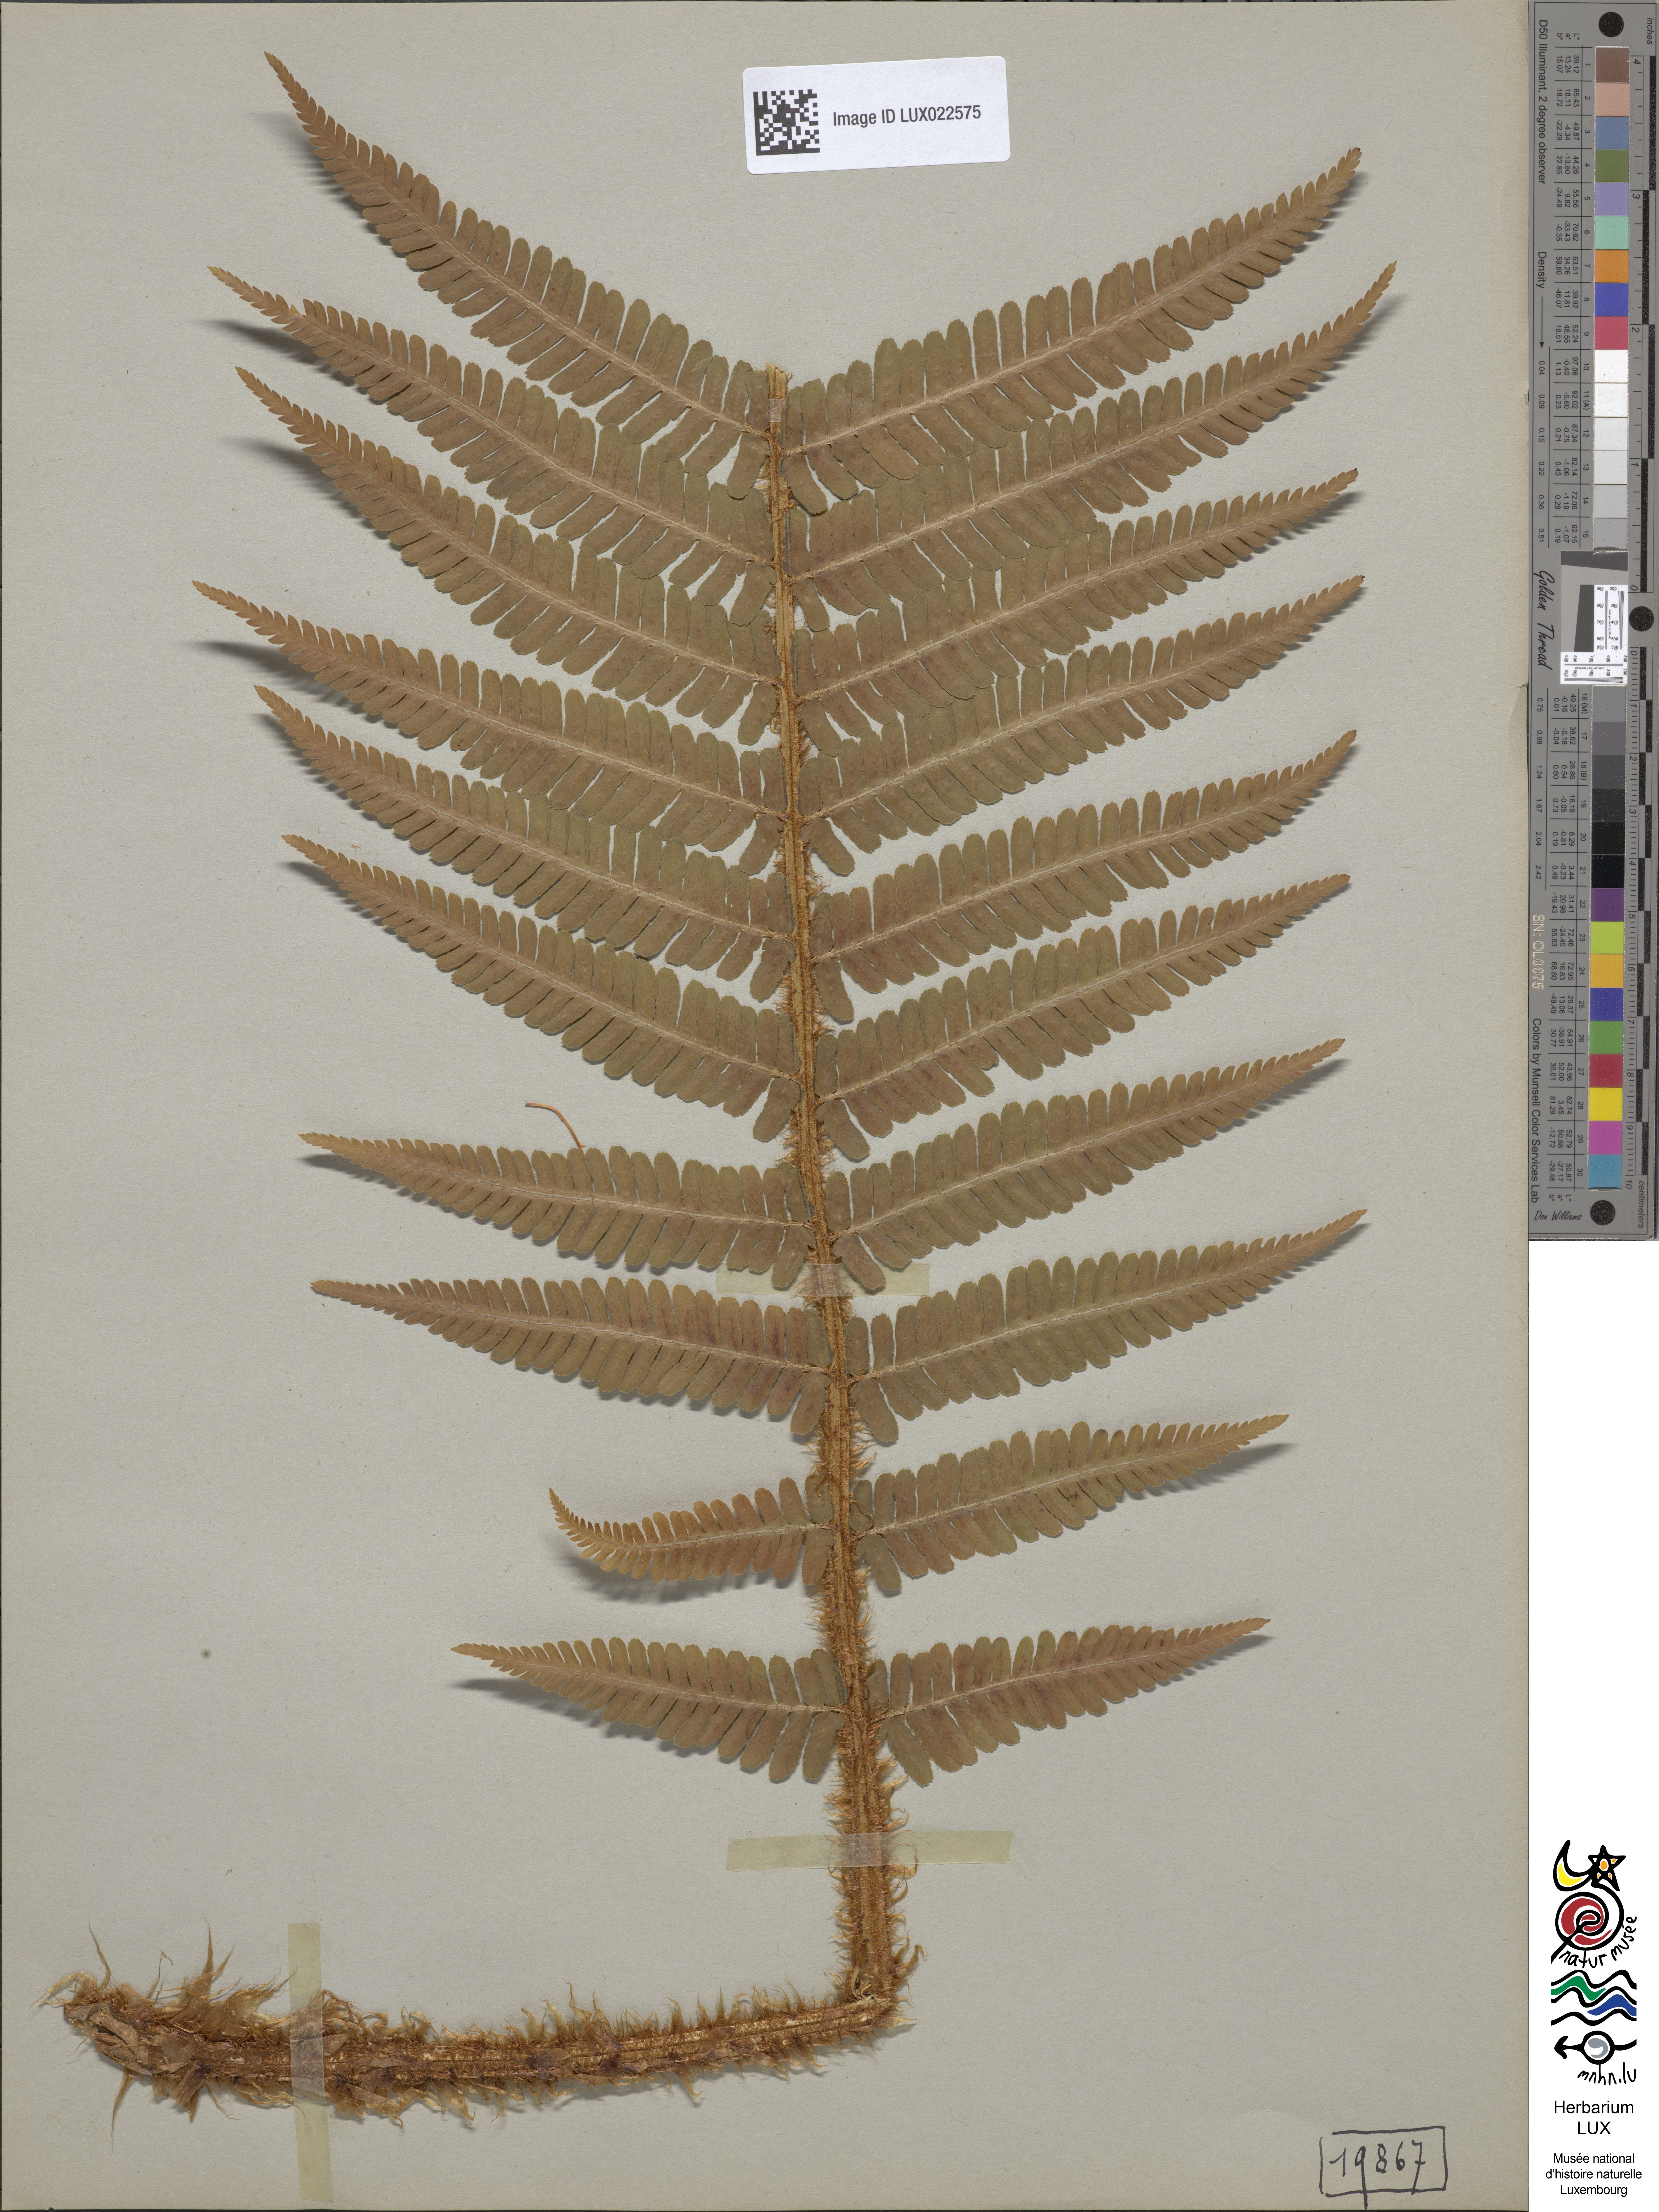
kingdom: Plantae
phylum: Tracheophyta
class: Polypodiopsida
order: Polypodiales
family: Dryopteridaceae
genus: Dryopteris
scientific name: Dryopteris borreri
